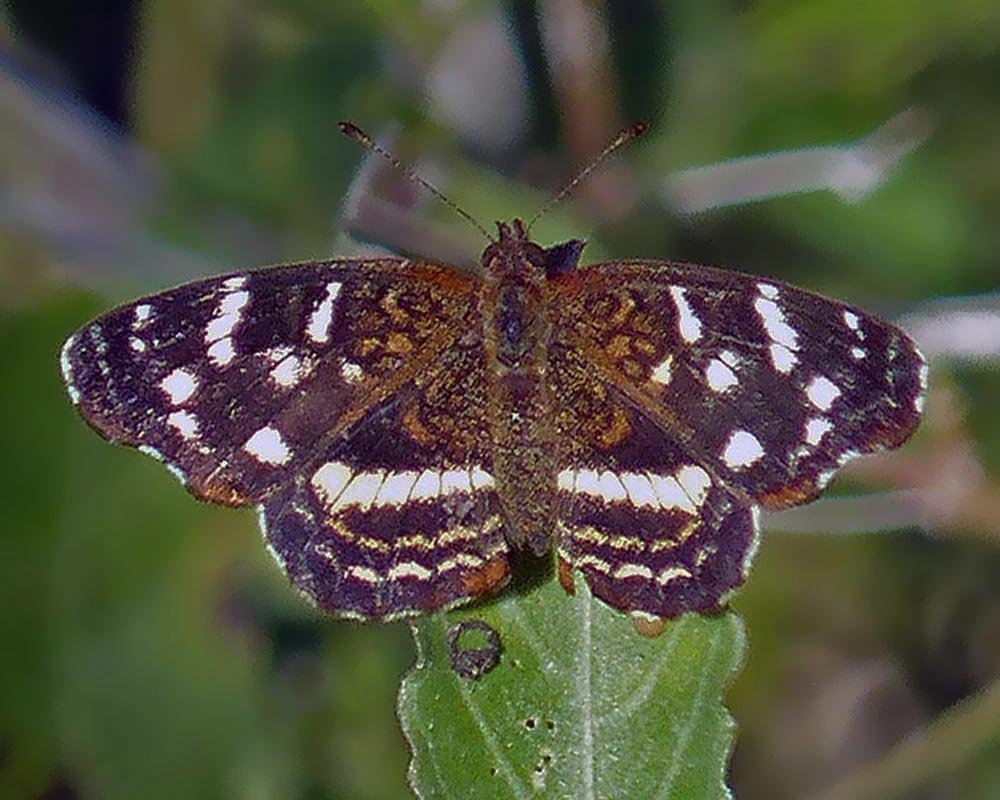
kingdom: Animalia
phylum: Arthropoda
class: Insecta
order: Lepidoptera
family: Nymphalidae
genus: Anthanassa
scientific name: Anthanassa argentea
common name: Chestnut Crescent
